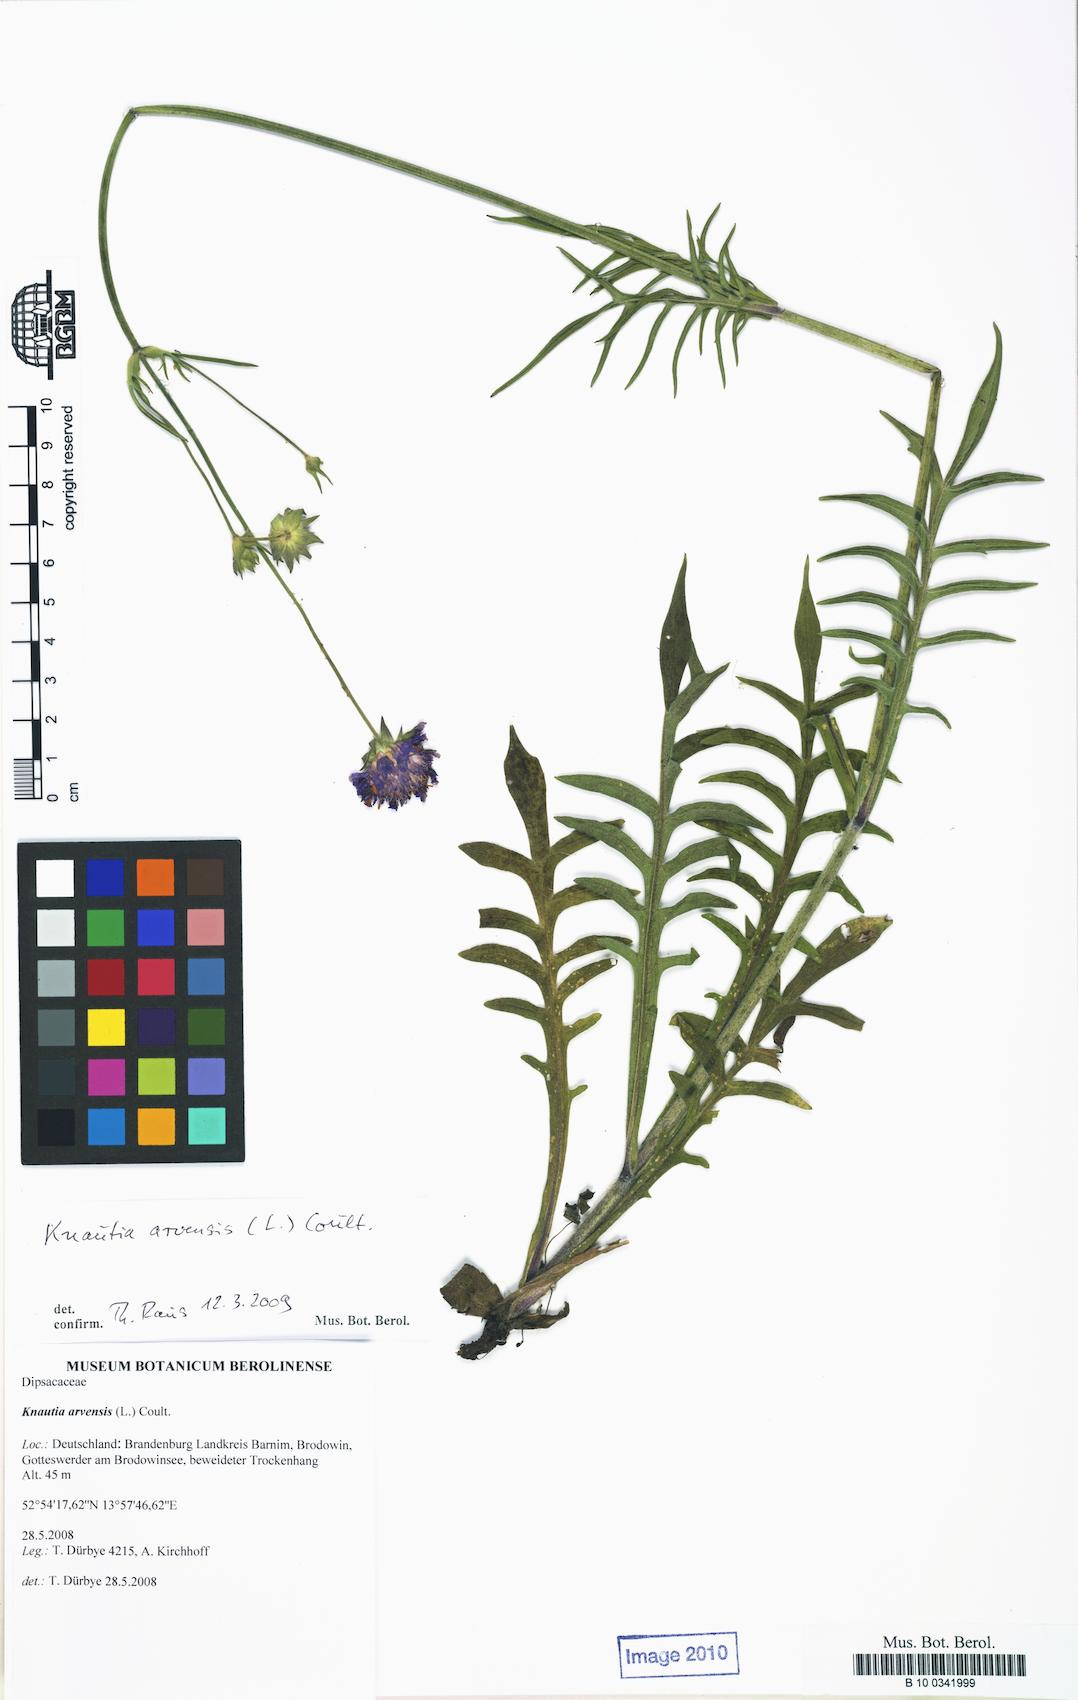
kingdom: Plantae
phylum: Tracheophyta
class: Magnoliopsida
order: Dipsacales
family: Caprifoliaceae
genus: Knautia
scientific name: Knautia arvensis
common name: Field scabiosa
